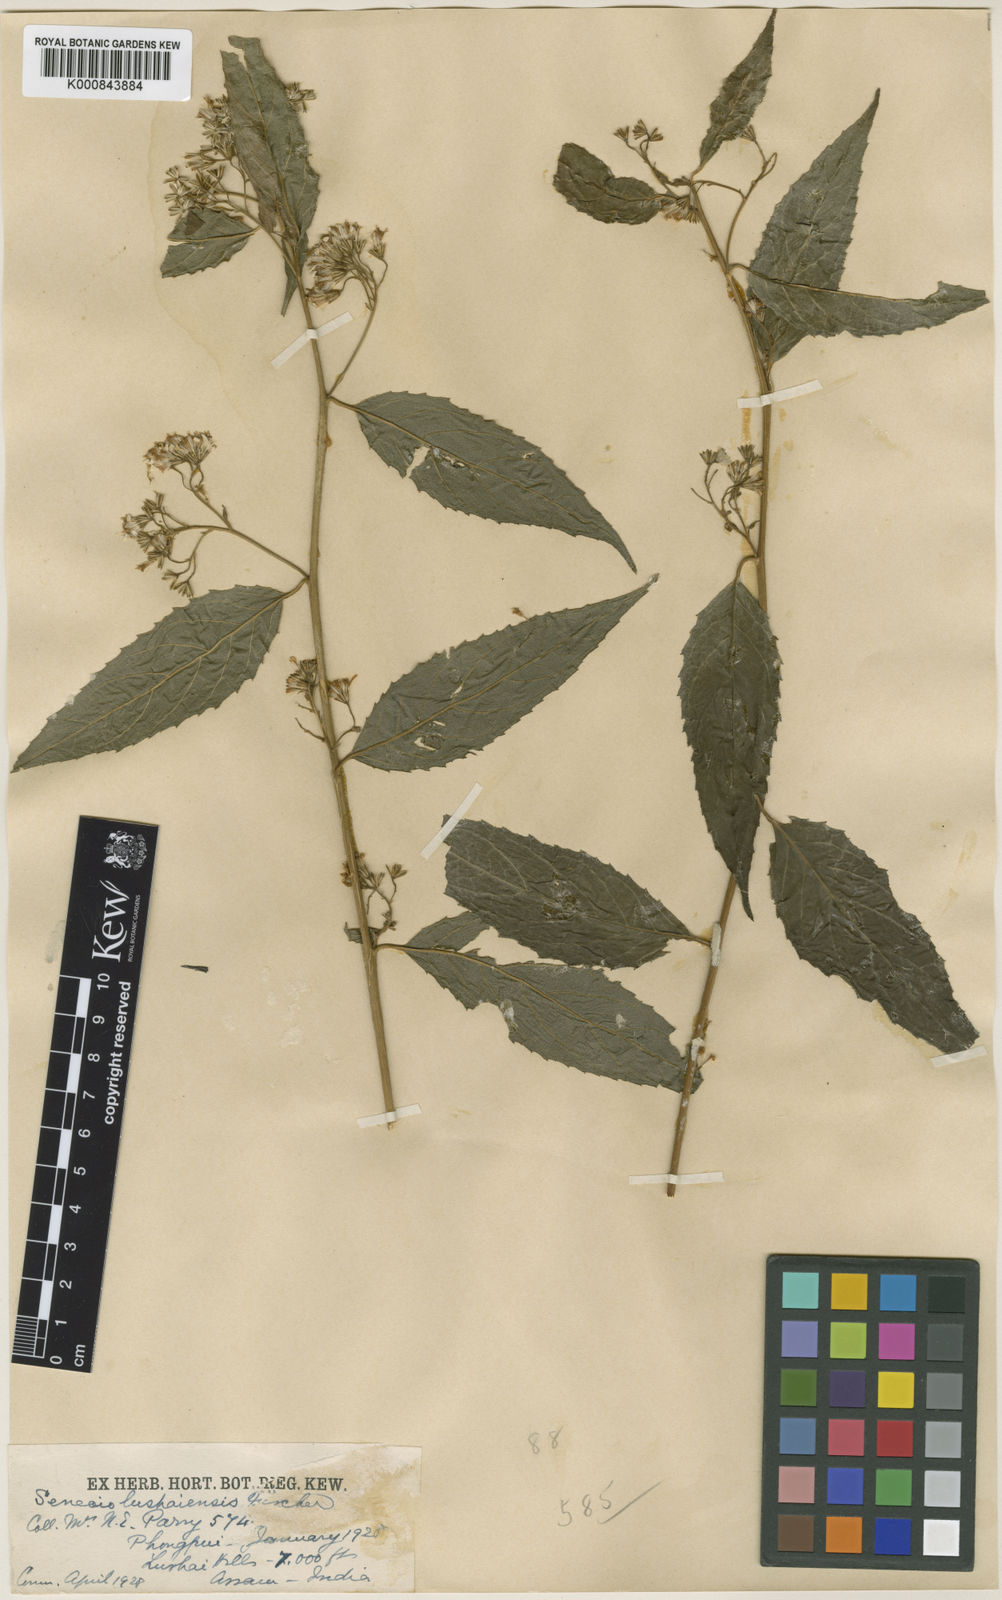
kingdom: Plantae
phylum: Tracheophyta
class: Magnoliopsida
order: Asterales
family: Asteraceae
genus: Synotis
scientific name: Synotis
